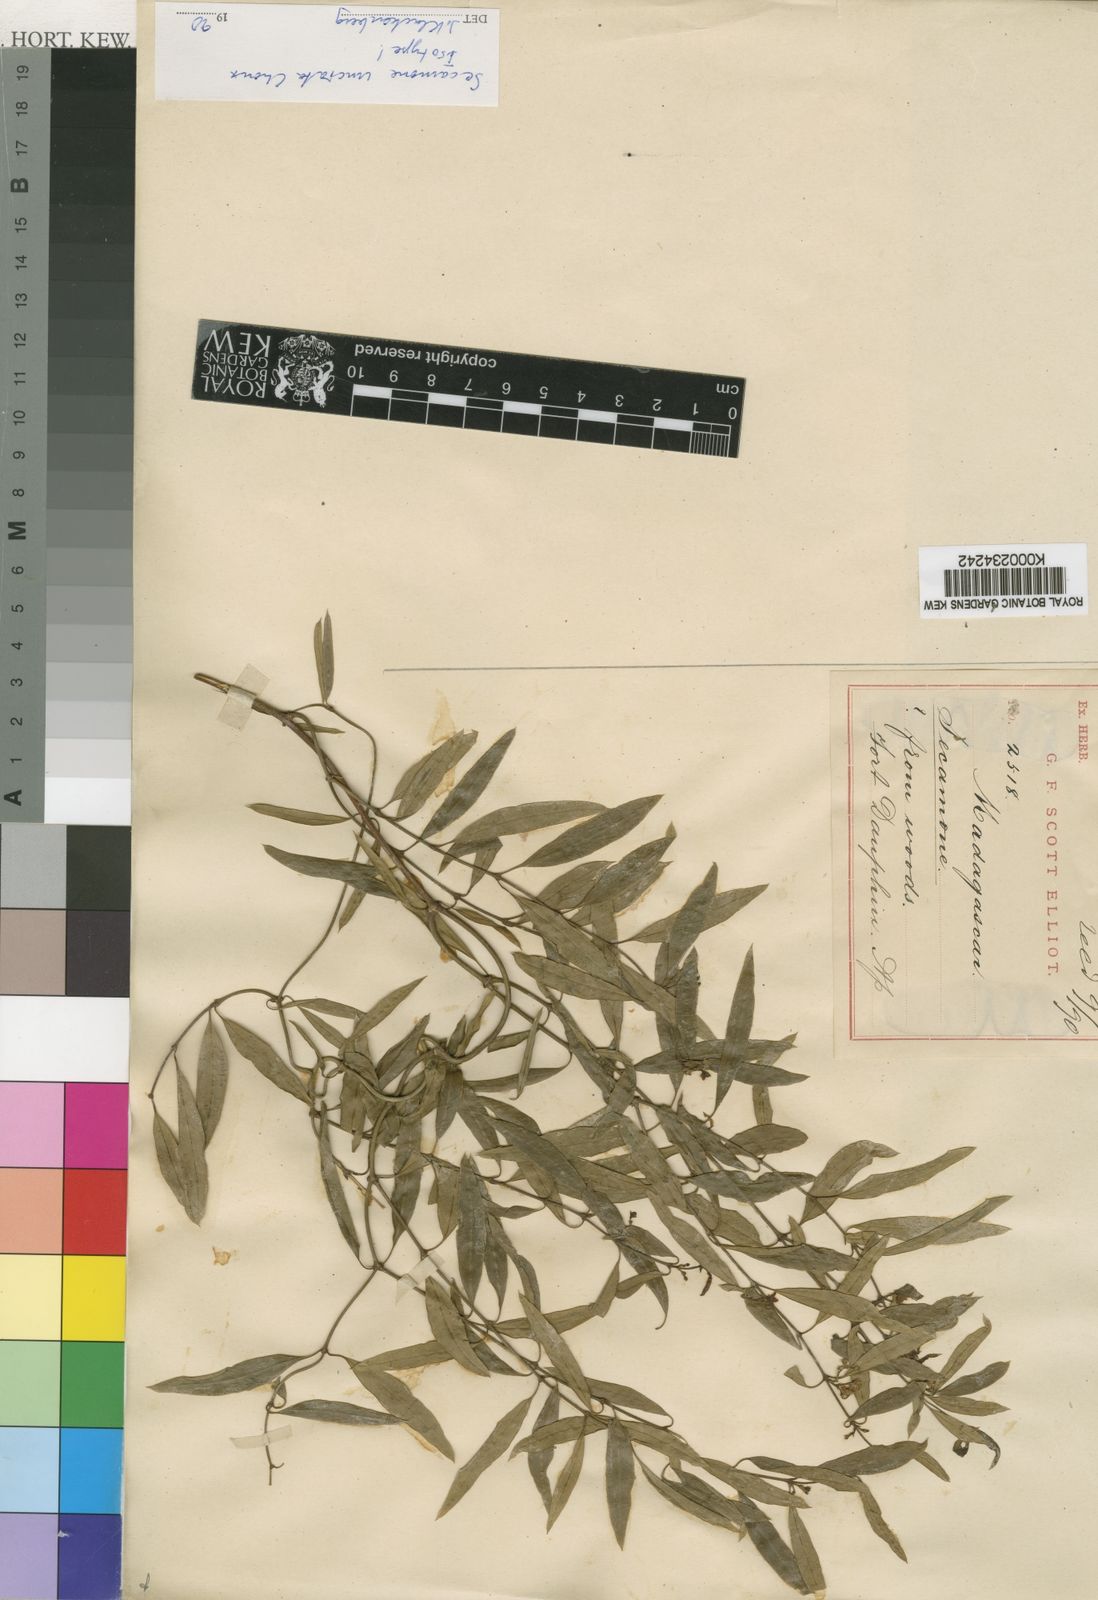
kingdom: Plantae
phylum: Tracheophyta
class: Magnoliopsida
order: Gentianales
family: Apocynaceae
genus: Secamone
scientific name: Secamone uncinata
